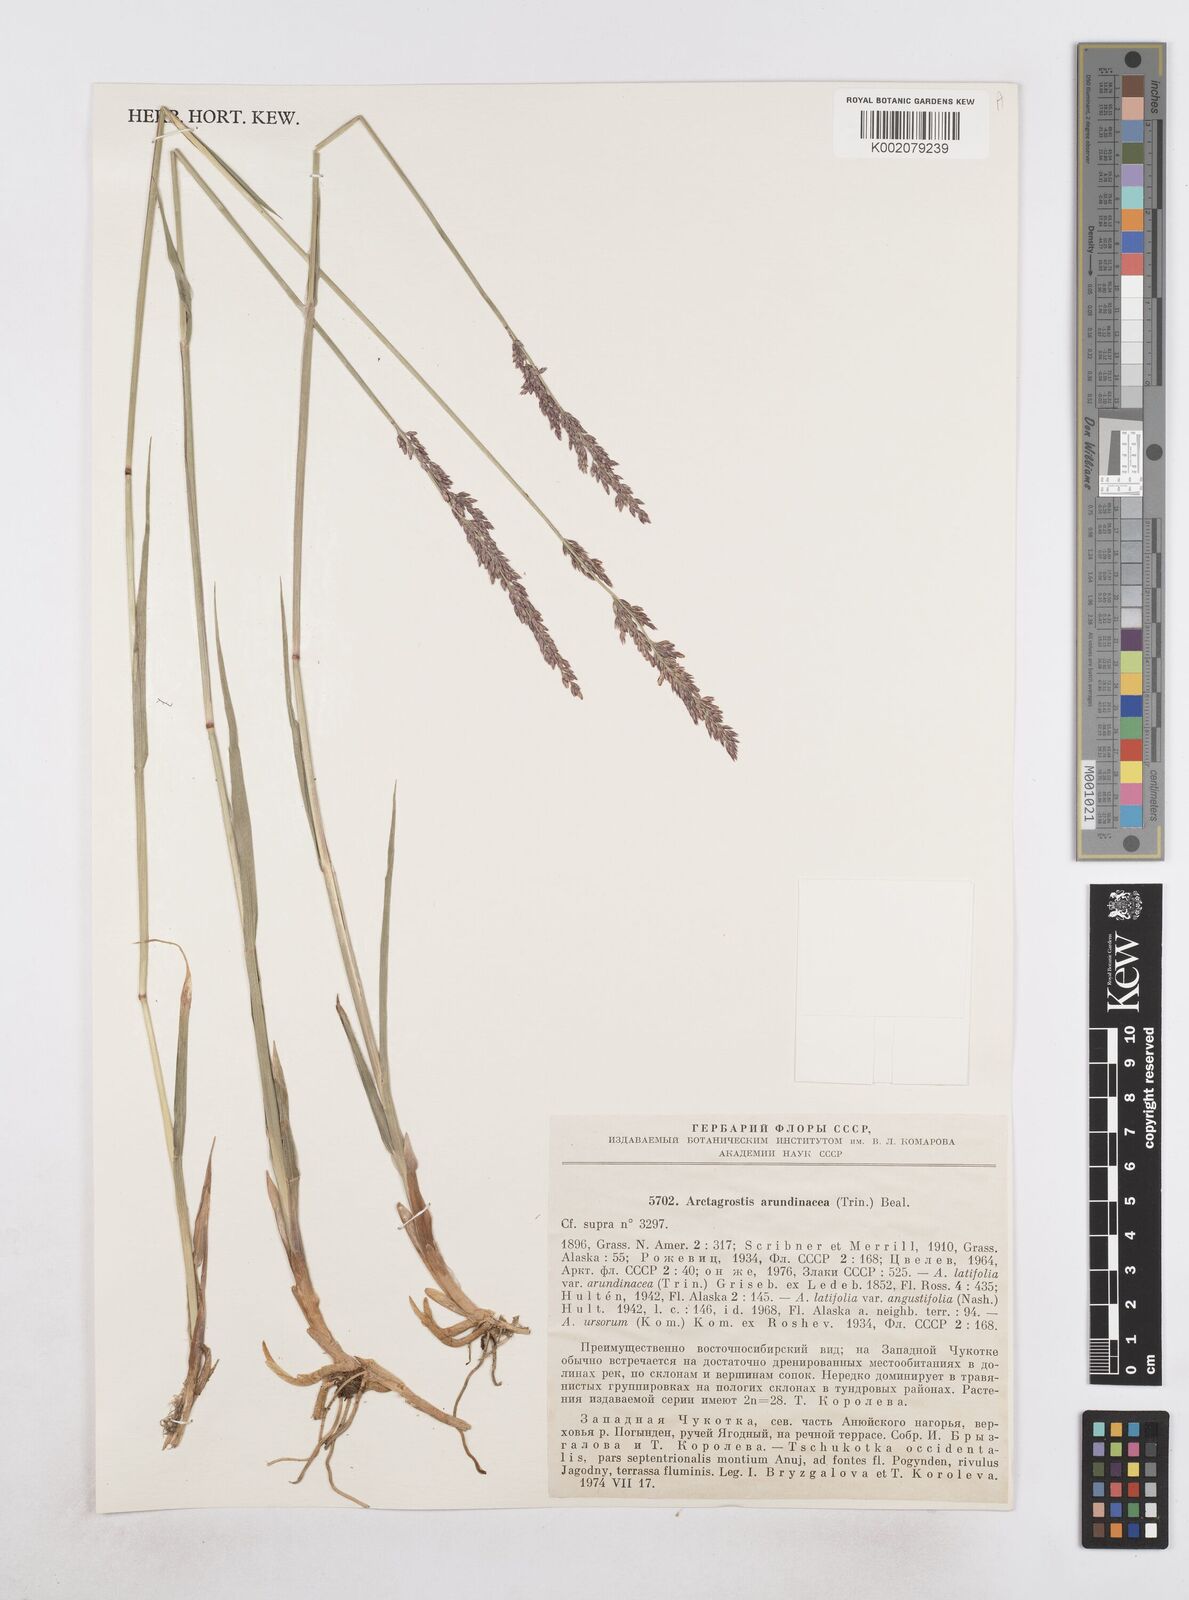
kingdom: Plantae
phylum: Tracheophyta
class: Liliopsida
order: Poales
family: Poaceae
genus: Arctagrostis
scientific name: Arctagrostis arundinacea
